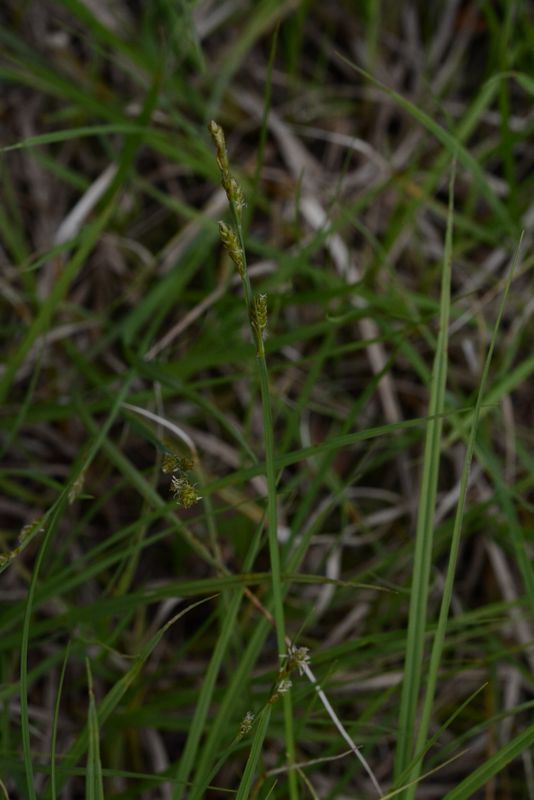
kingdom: Plantae
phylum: Tracheophyta
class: Liliopsida
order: Poales
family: Cyperaceae
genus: Carex
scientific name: Carex canescens
